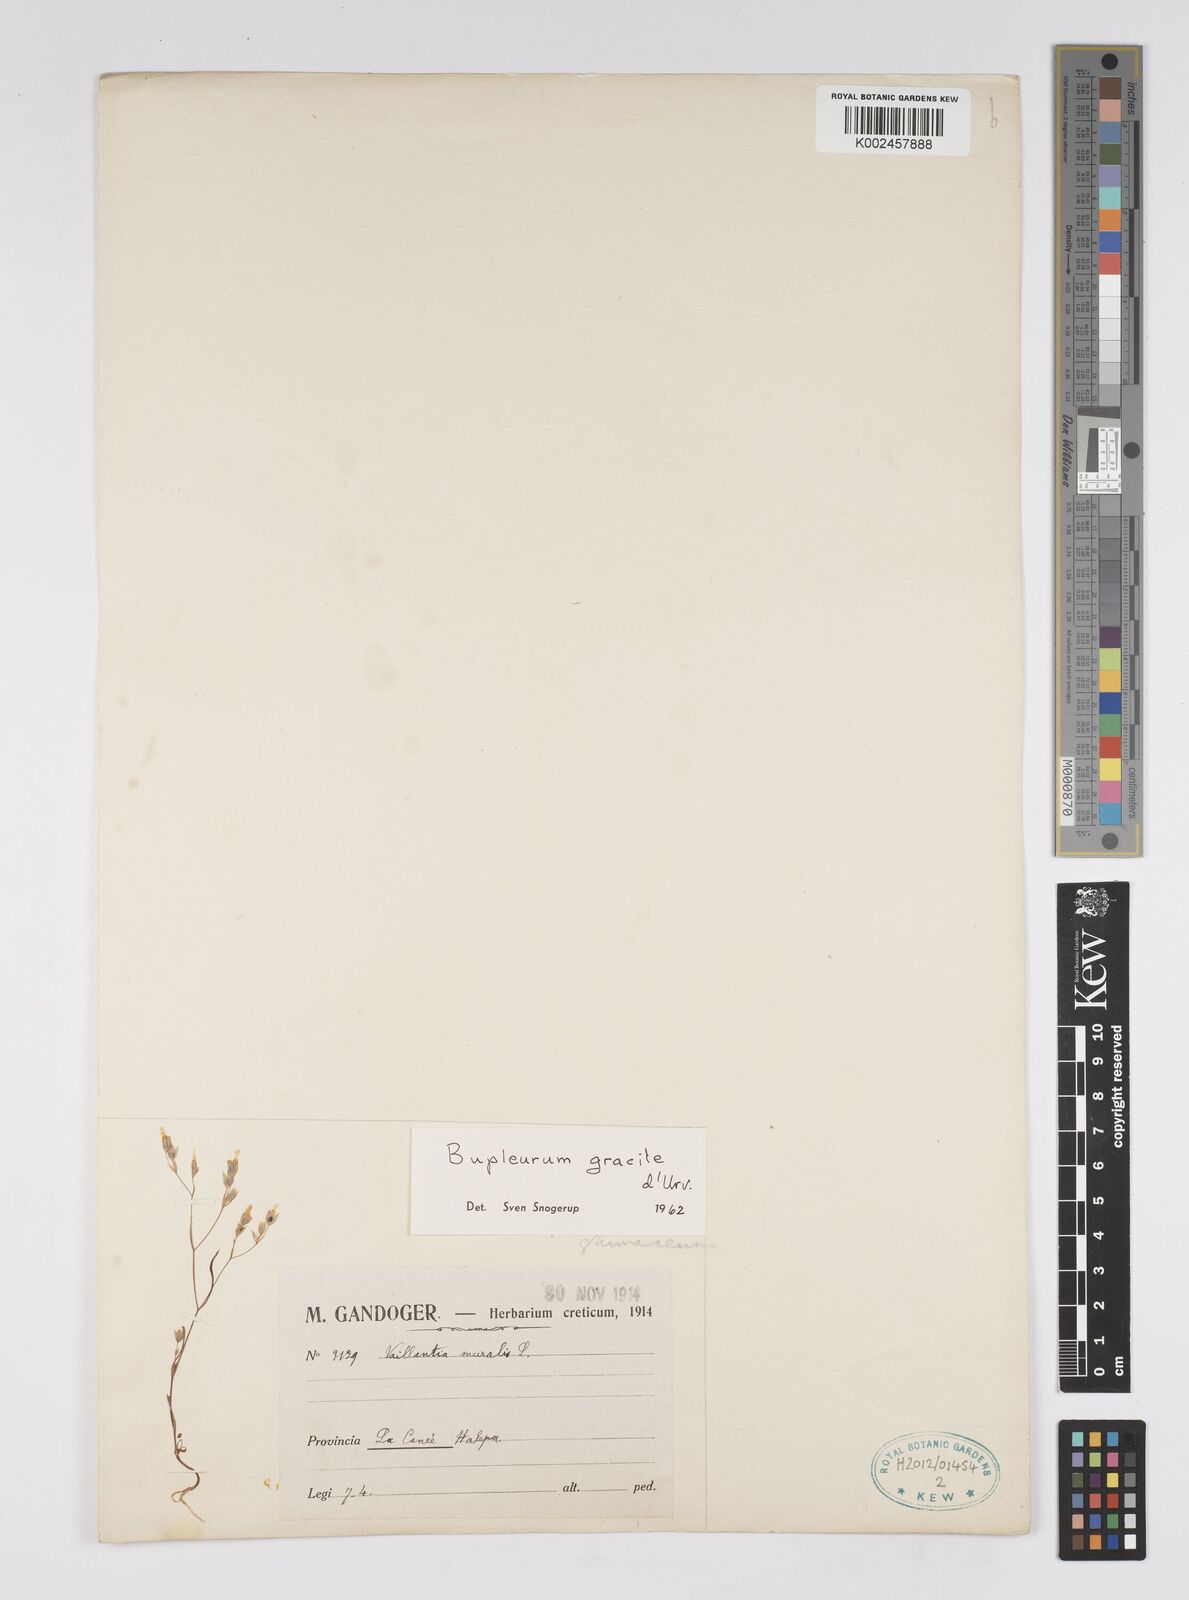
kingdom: Plantae
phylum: Tracheophyta
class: Magnoliopsida
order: Apiales
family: Apiaceae
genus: Bupleurum
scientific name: Bupleurum gracile
